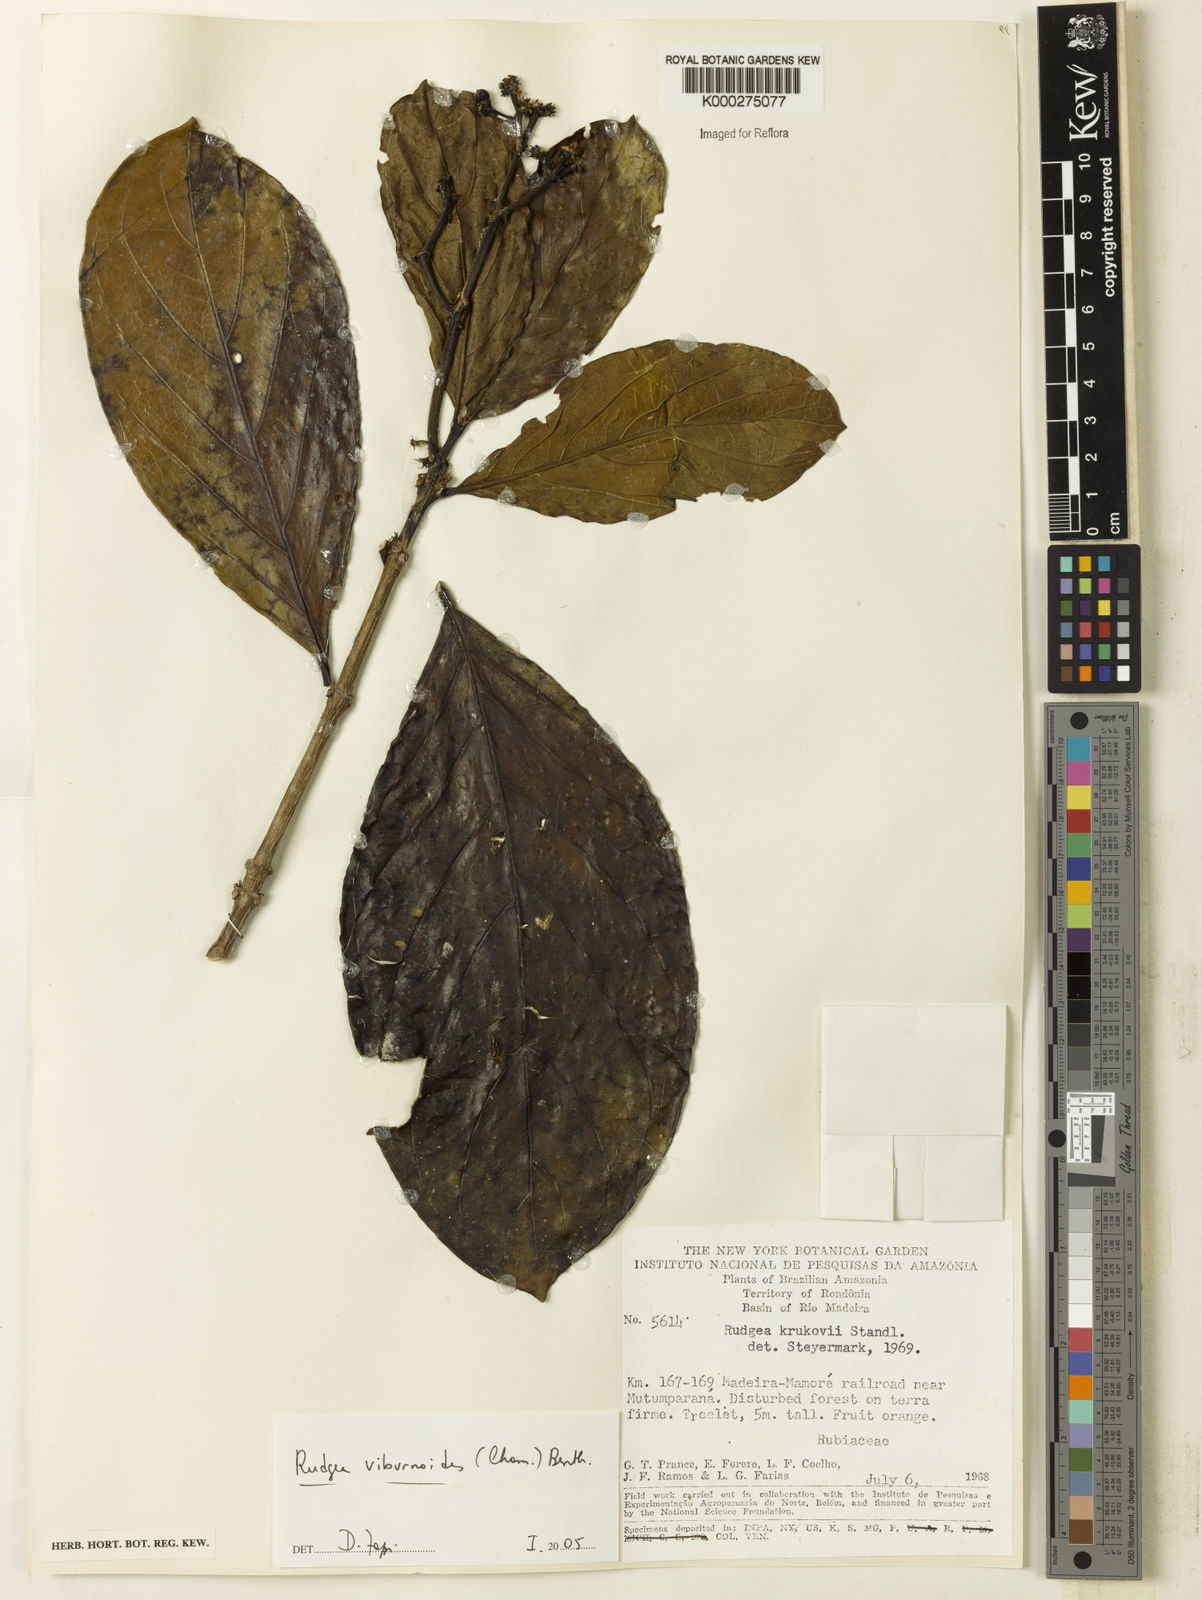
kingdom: Plantae
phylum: Tracheophyta
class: Magnoliopsida
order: Gentianales
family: Rubiaceae
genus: Rudgea
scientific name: Rudgea viburnoides
